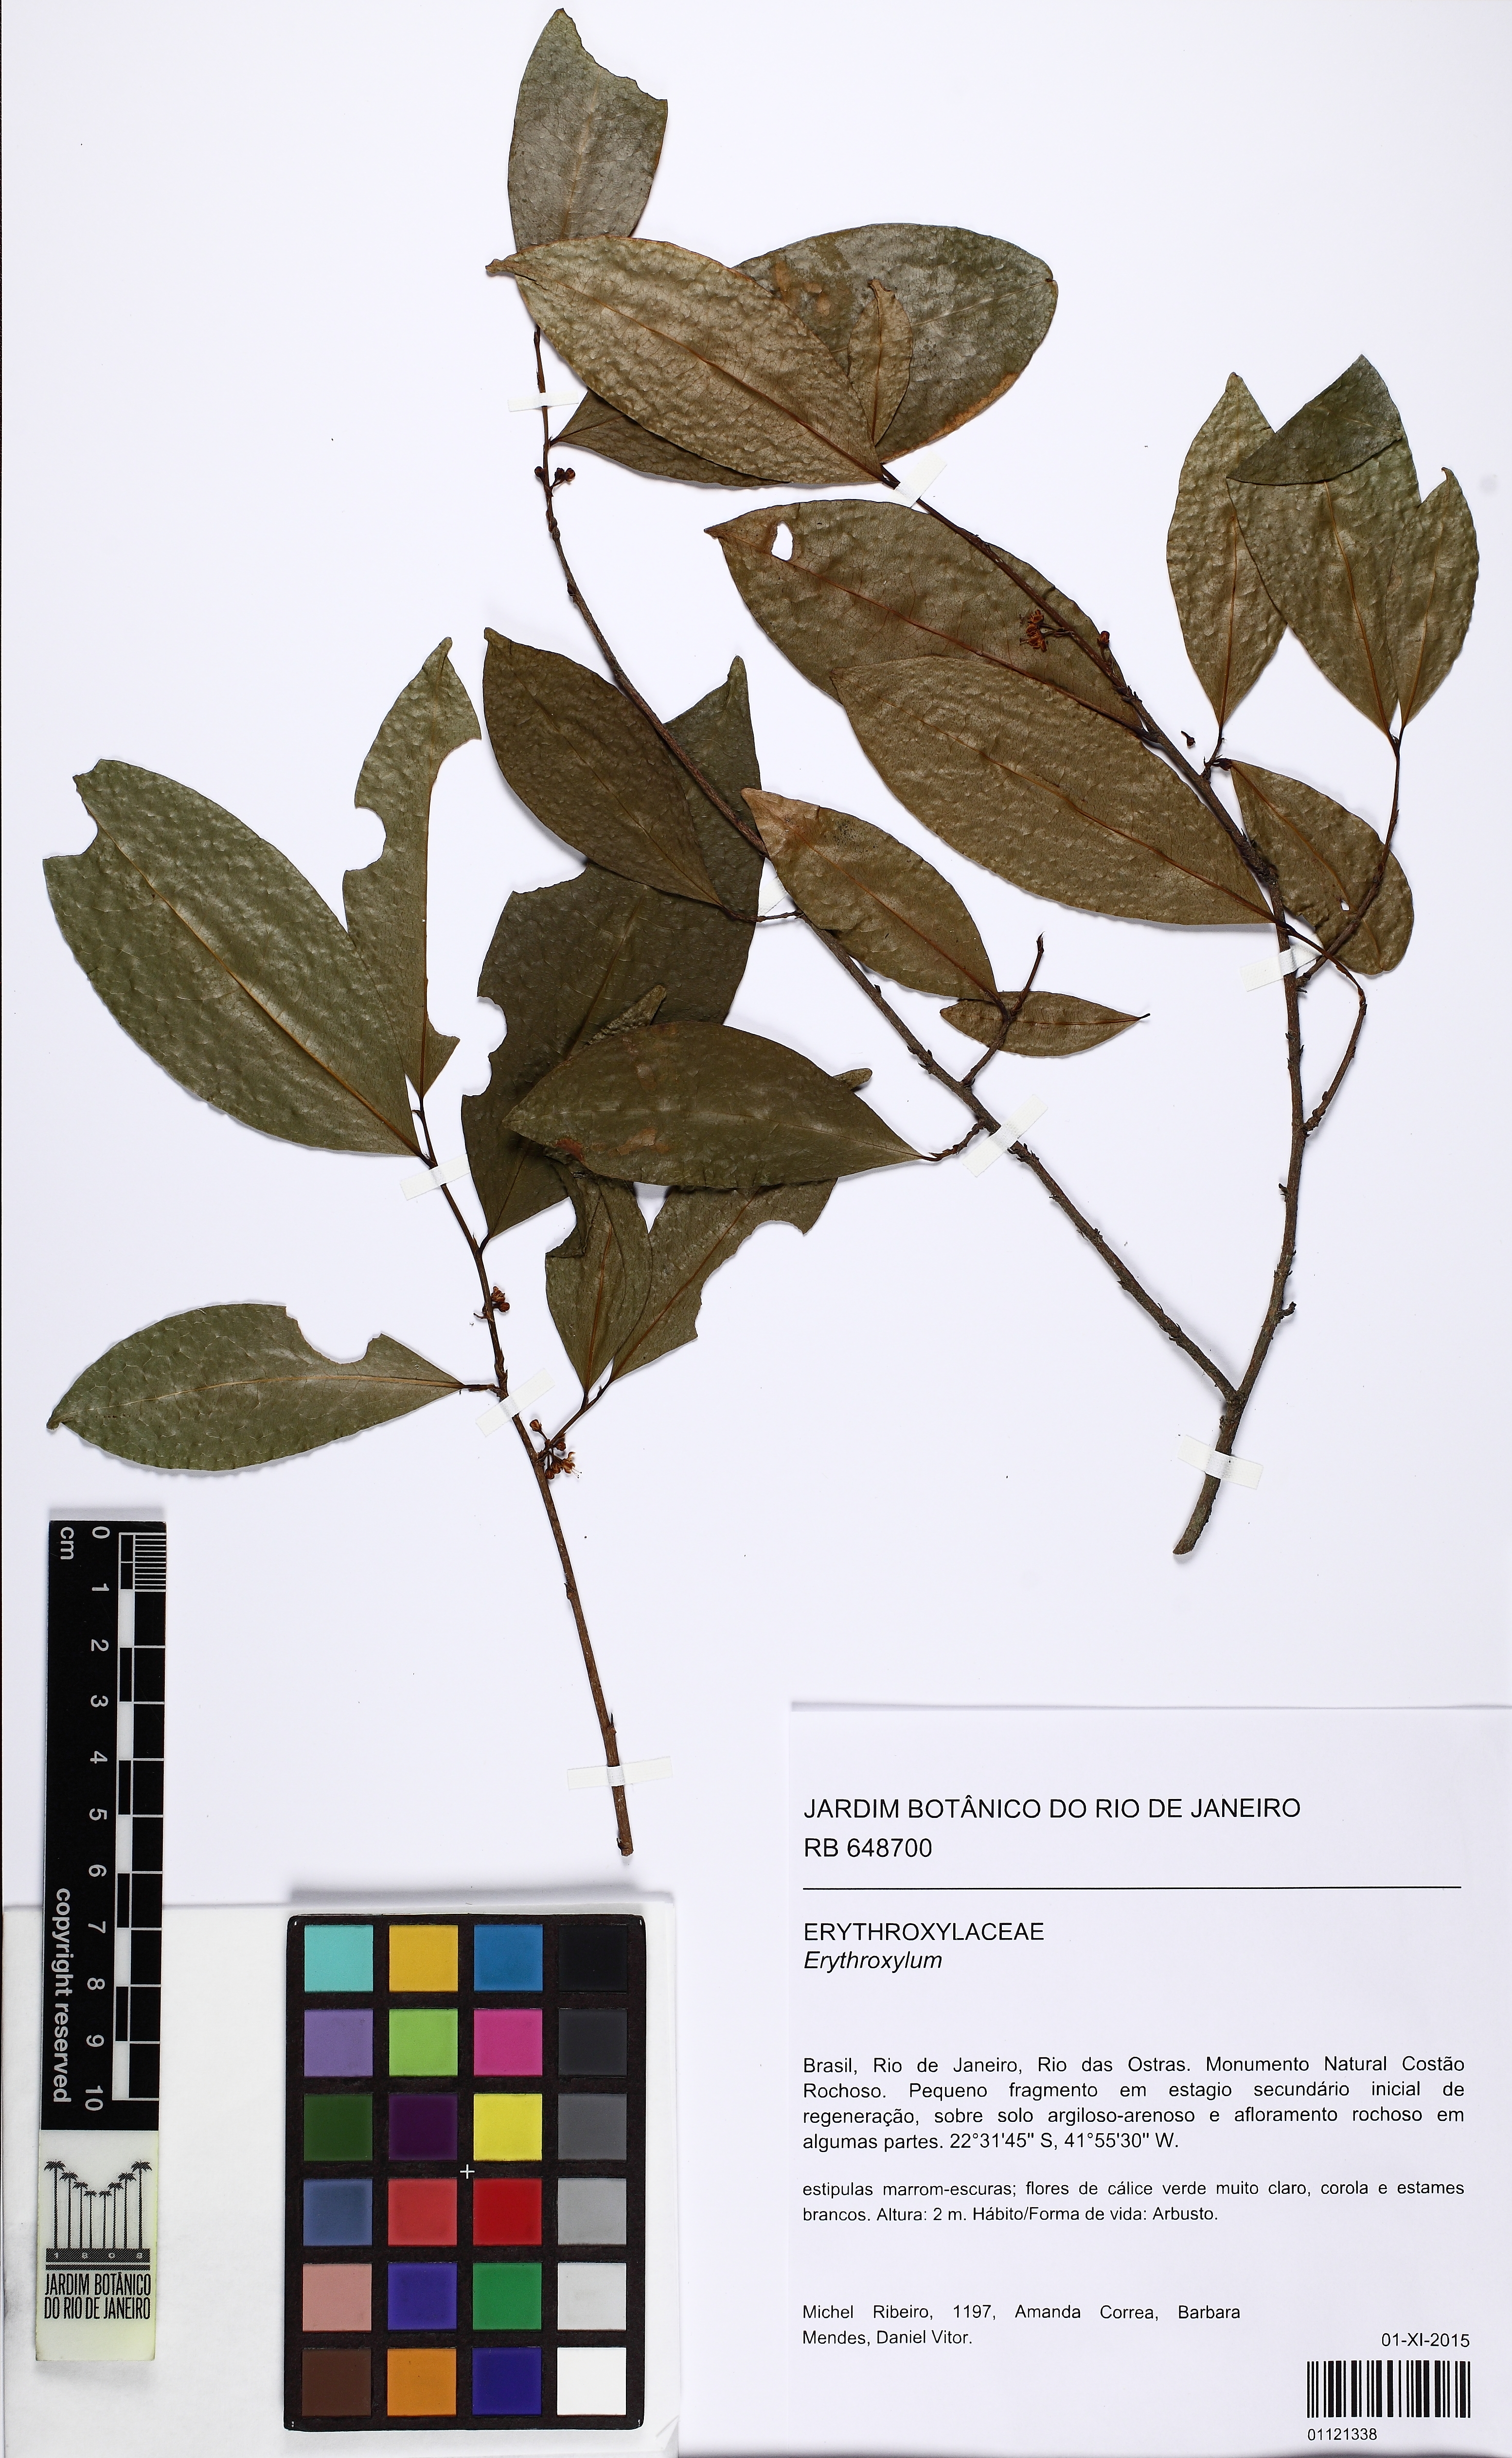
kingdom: Plantae
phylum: Tracheophyta
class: Magnoliopsida
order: Malpighiales
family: Erythroxylaceae
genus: Erythroxylum
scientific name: Erythroxylum
